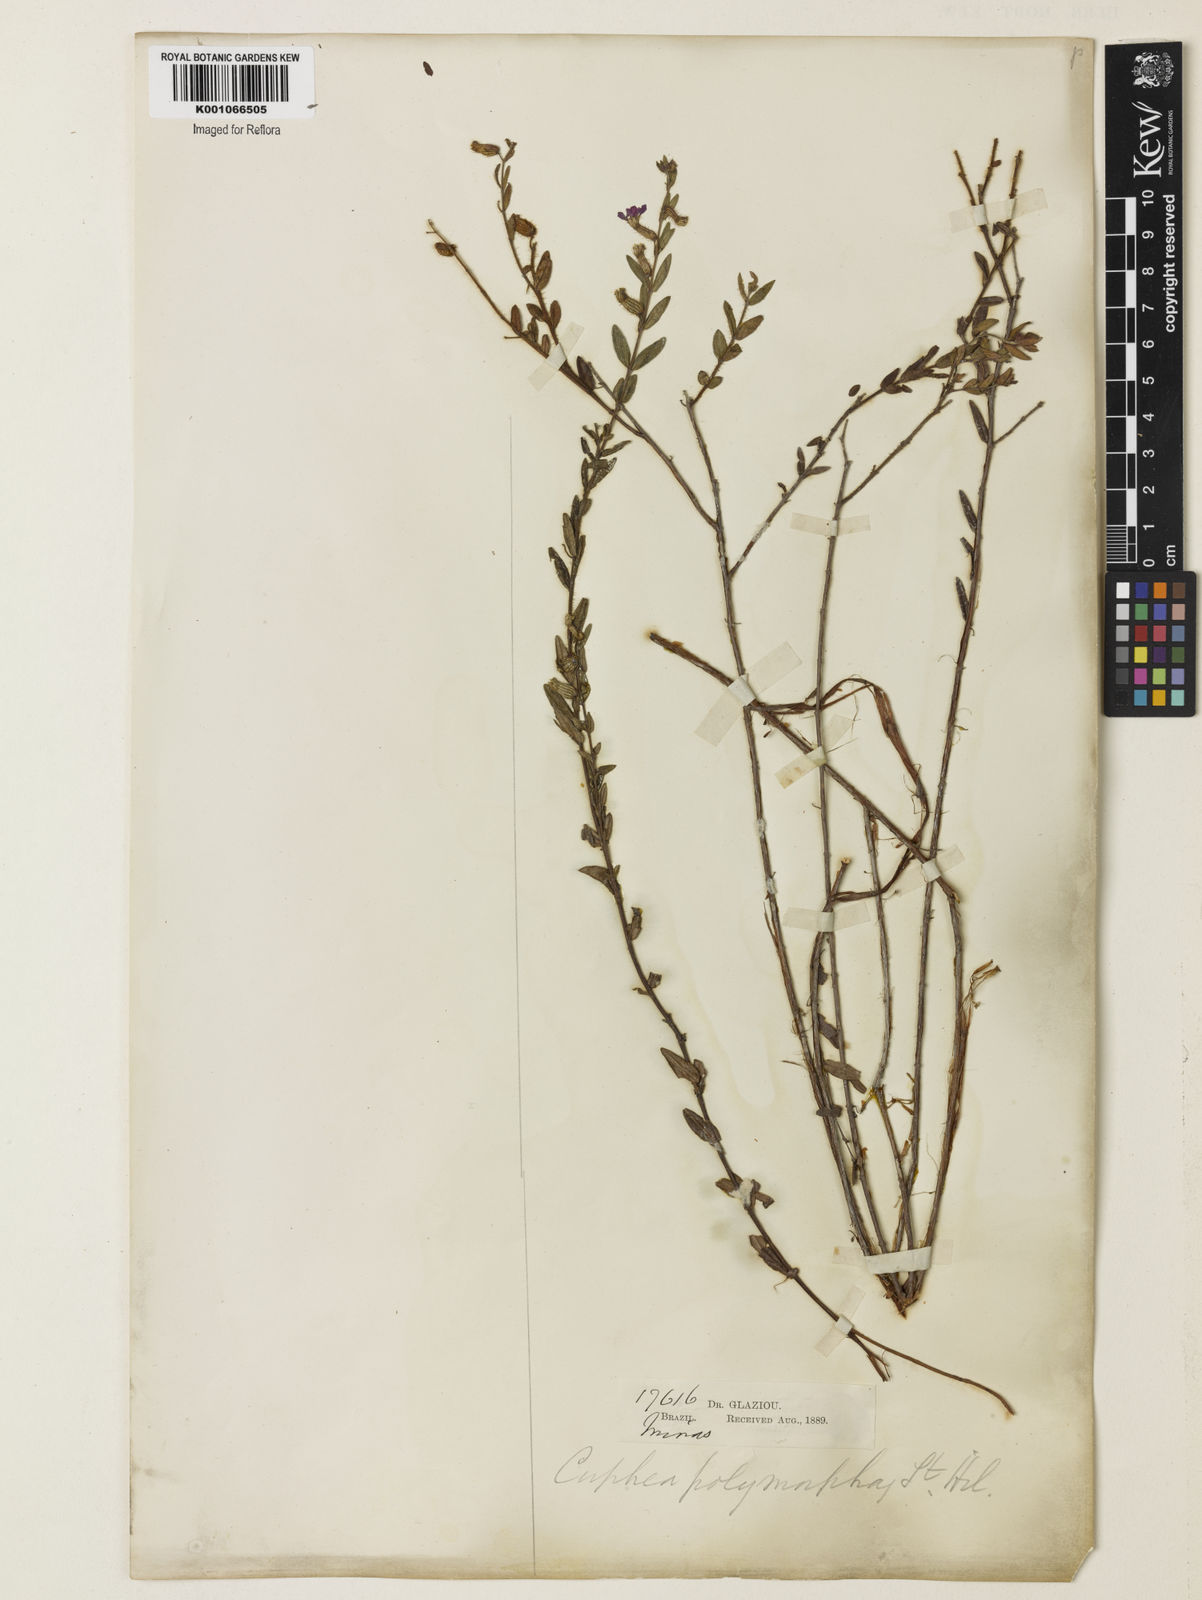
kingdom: Plantae
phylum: Tracheophyta
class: Magnoliopsida
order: Myrtales
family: Lythraceae
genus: Cuphea
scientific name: Cuphea polymorpha
